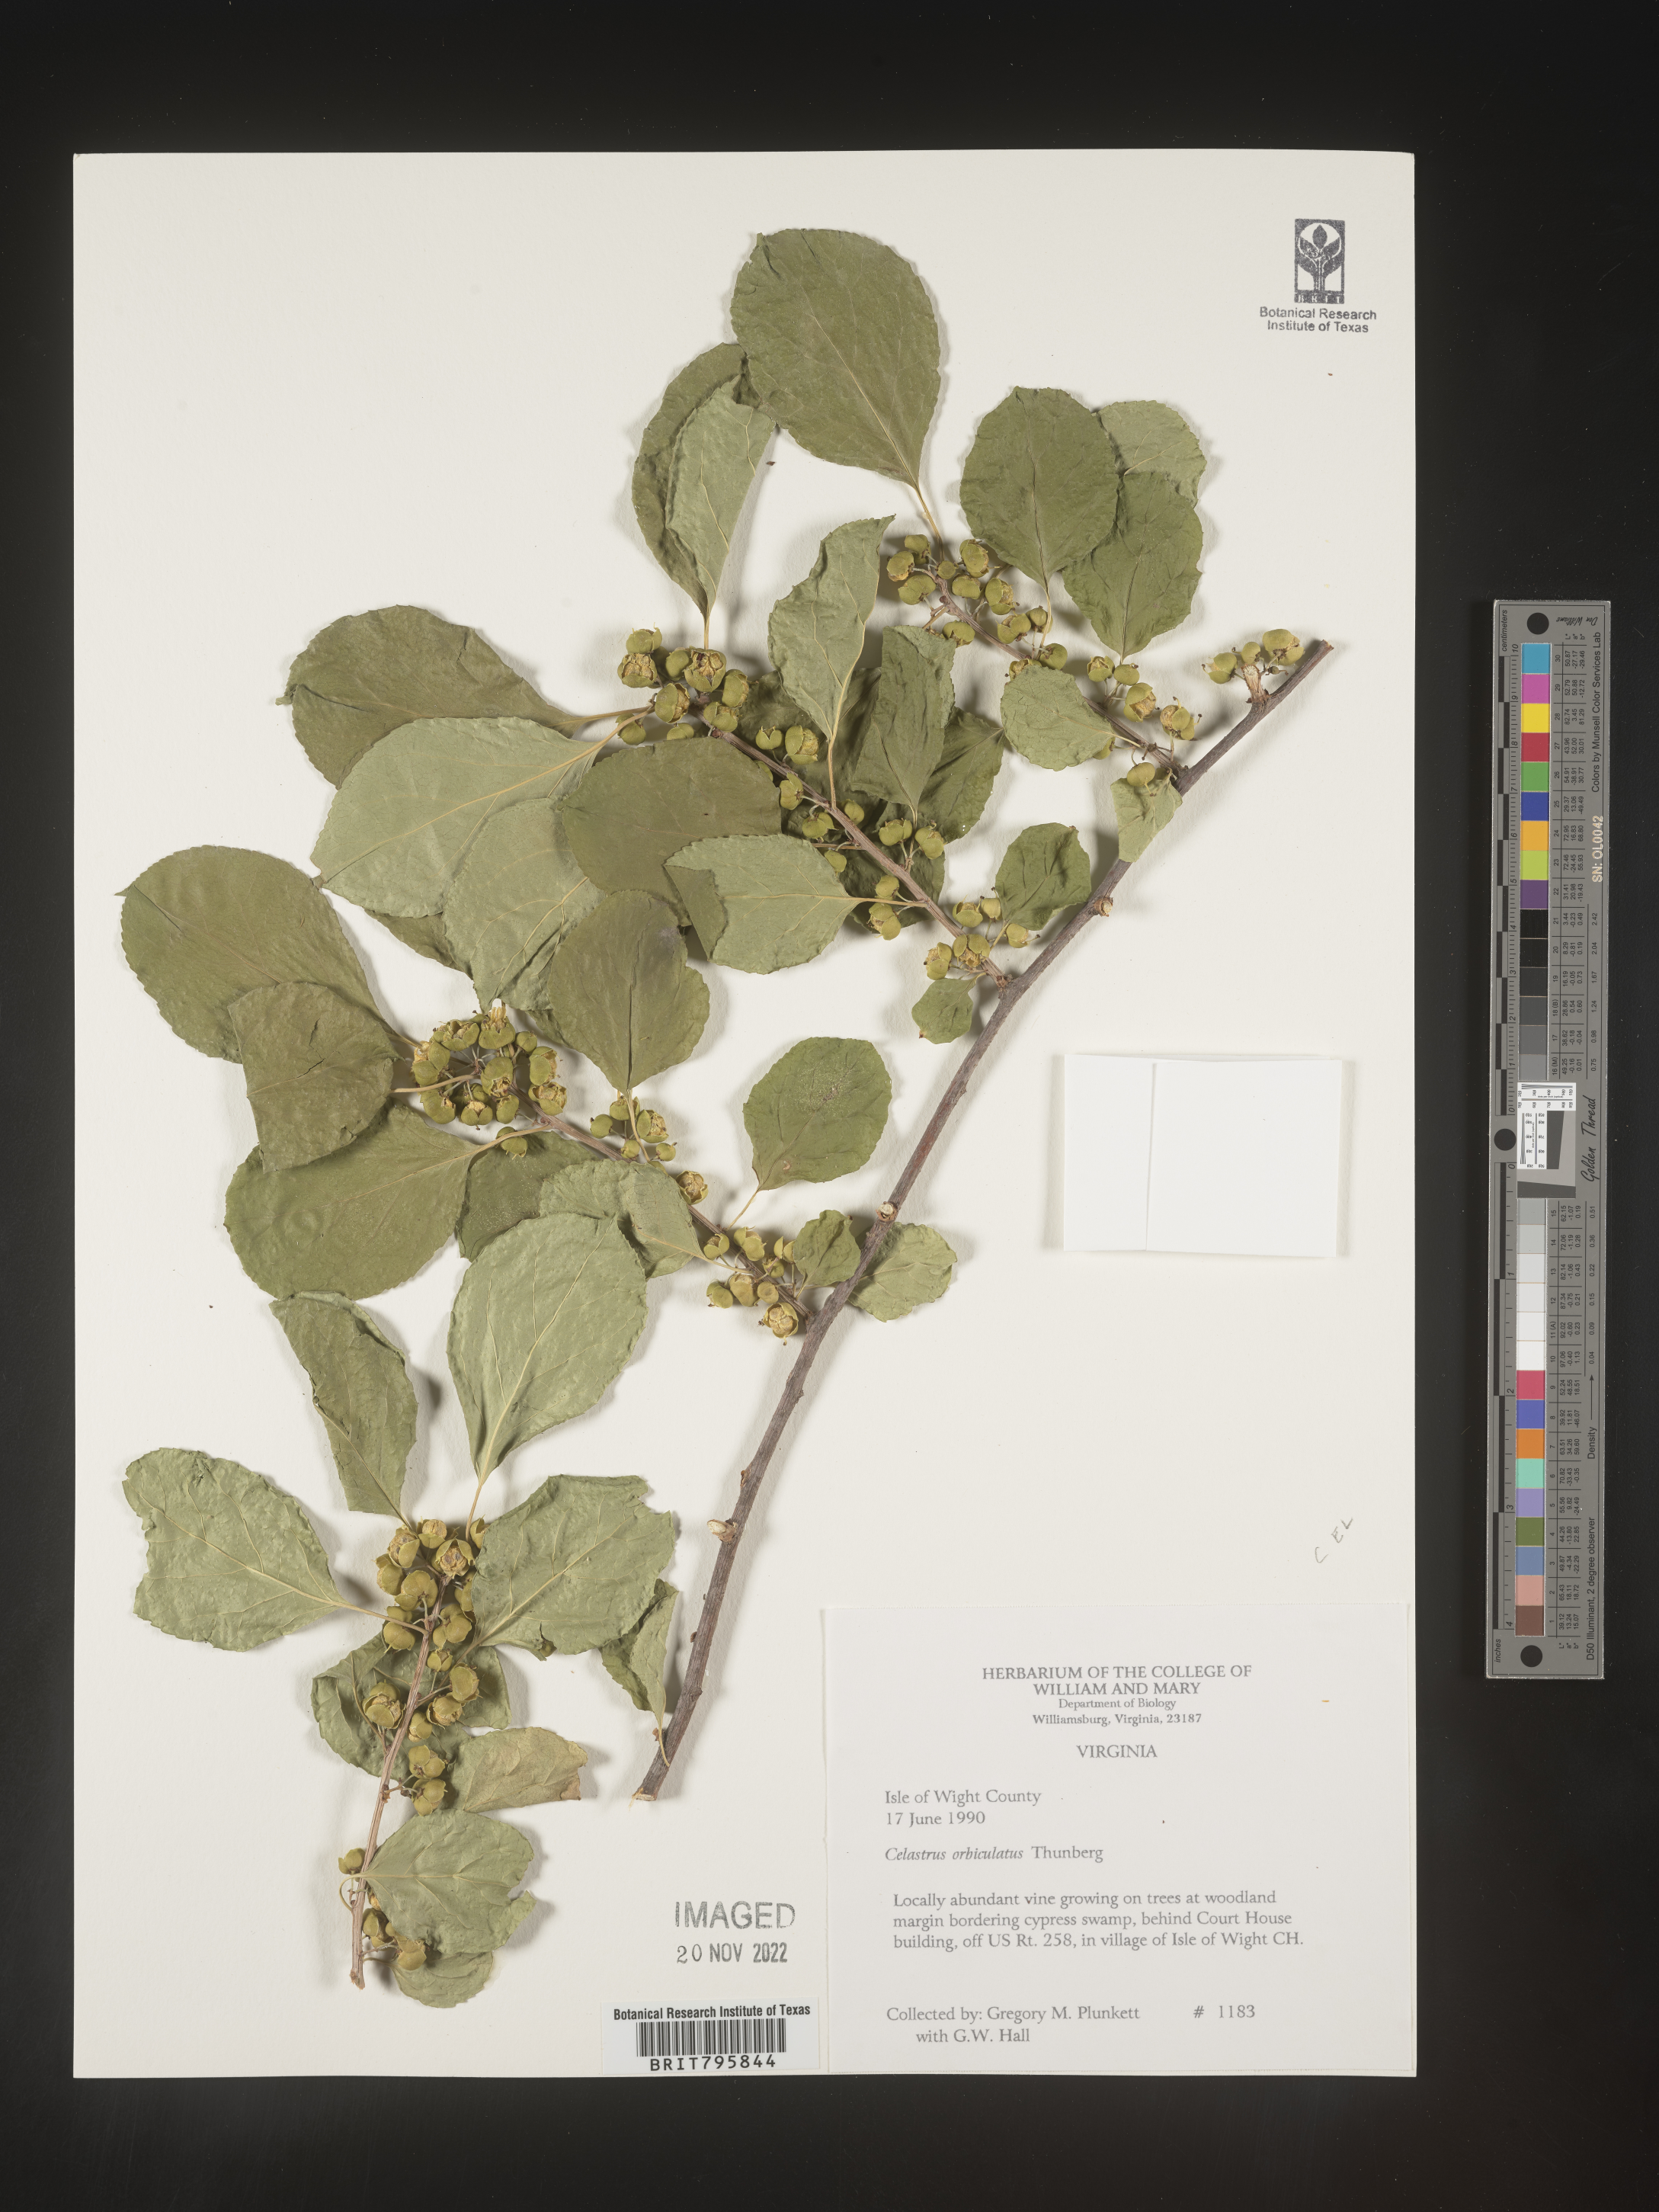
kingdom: Plantae
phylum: Tracheophyta
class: Magnoliopsida
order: Celastrales
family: Celastraceae
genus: Celastrus
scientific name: Celastrus
